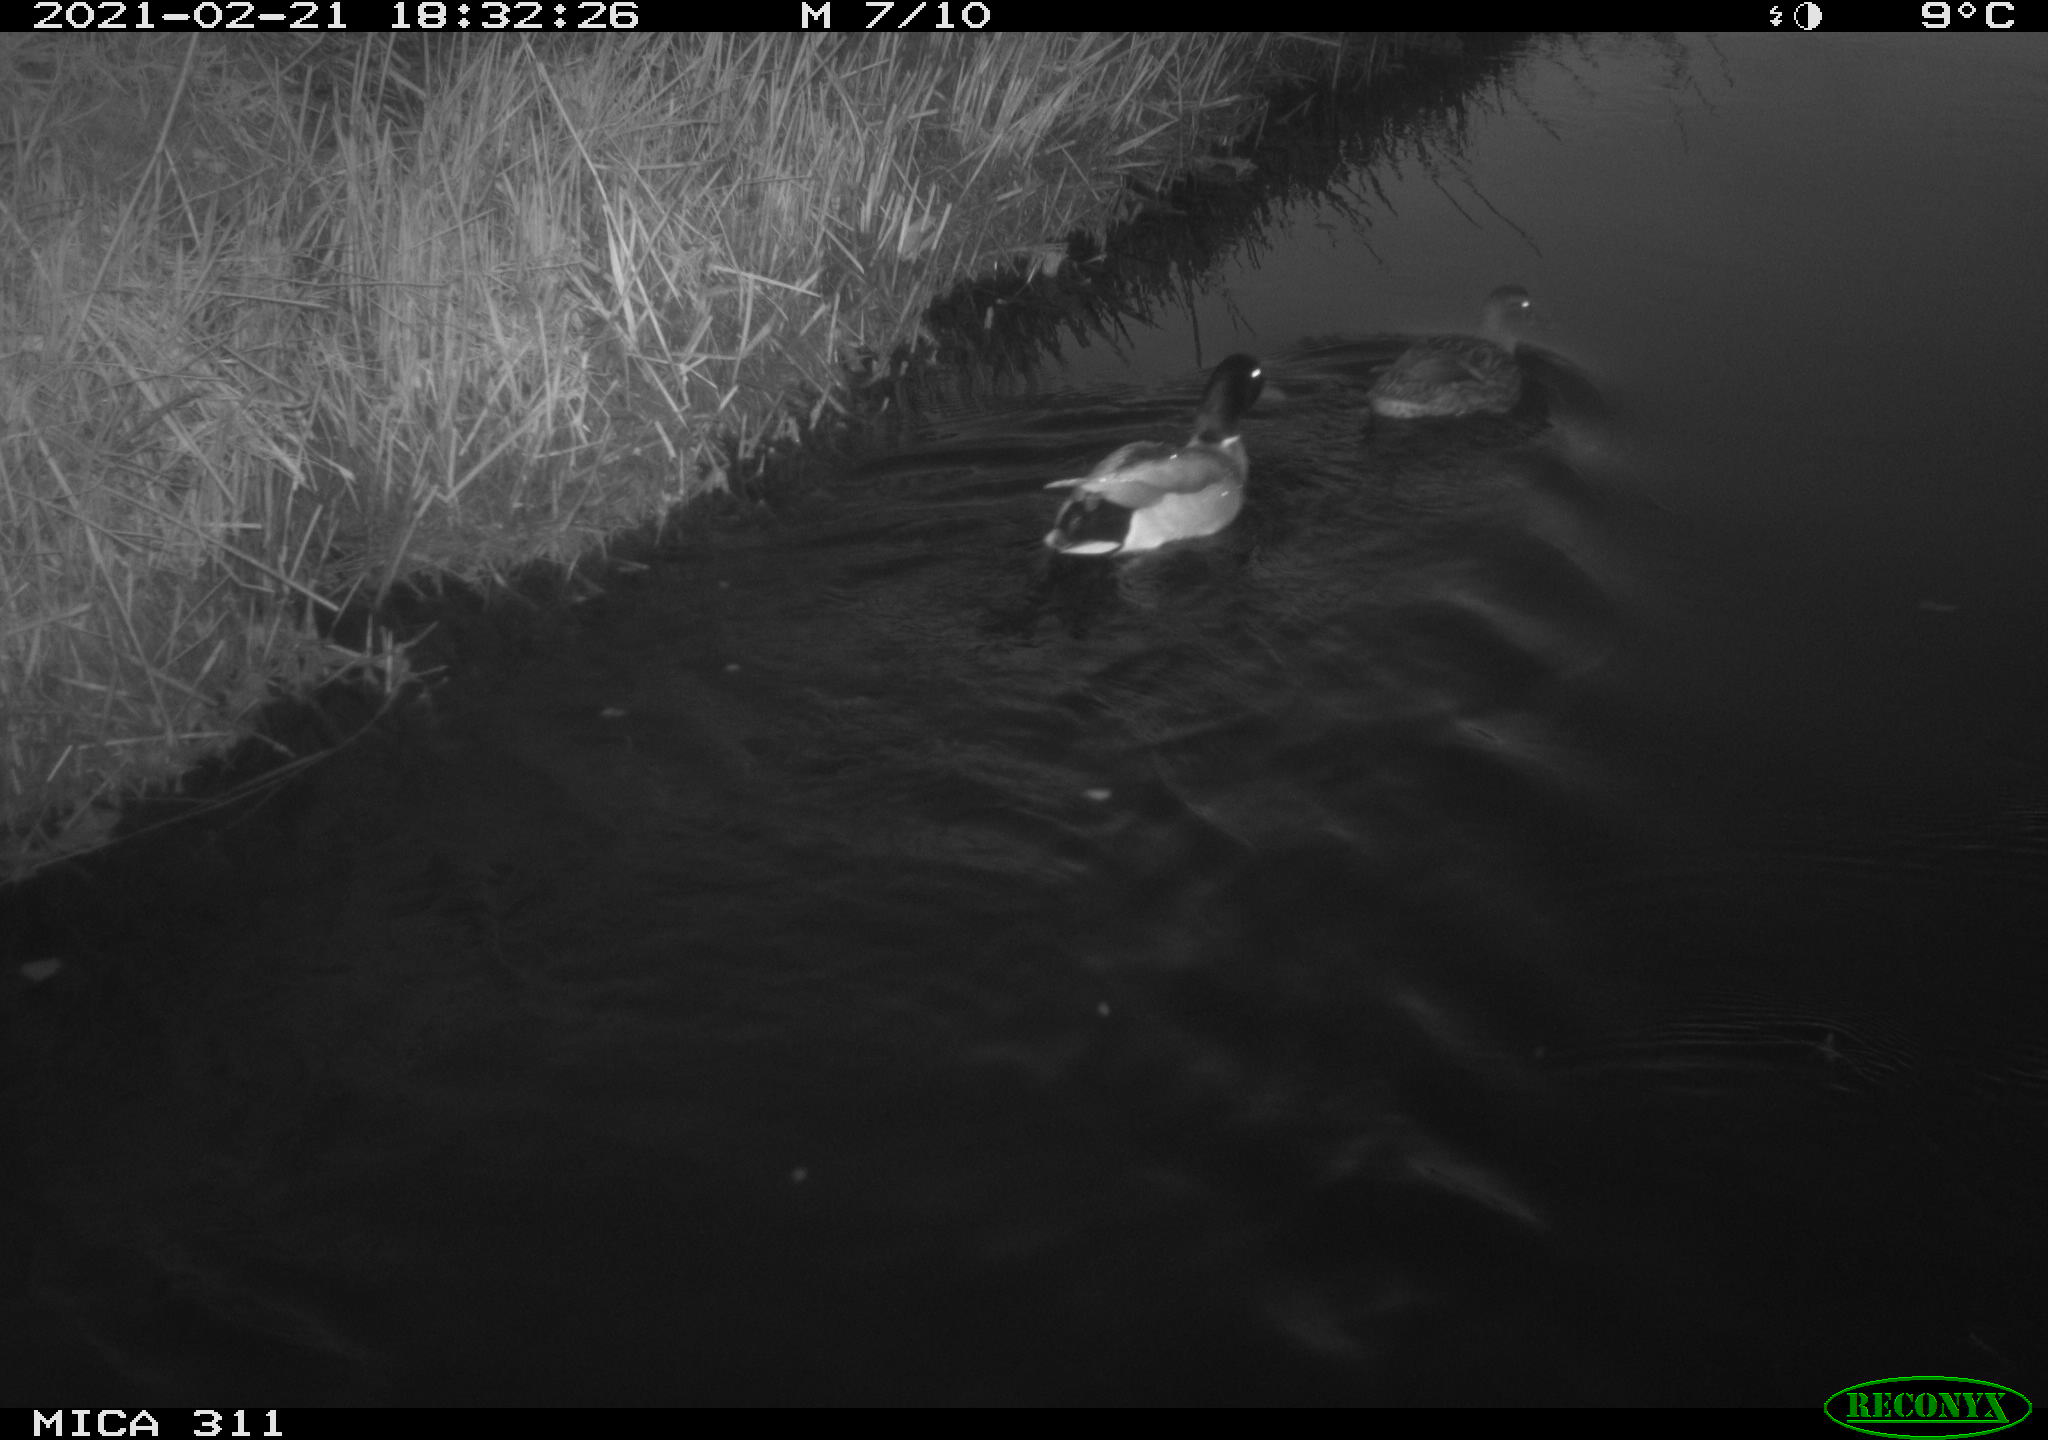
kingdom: Animalia
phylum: Chordata
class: Aves
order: Anseriformes
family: Anatidae
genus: Anas
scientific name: Anas platyrhynchos
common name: Mallard
